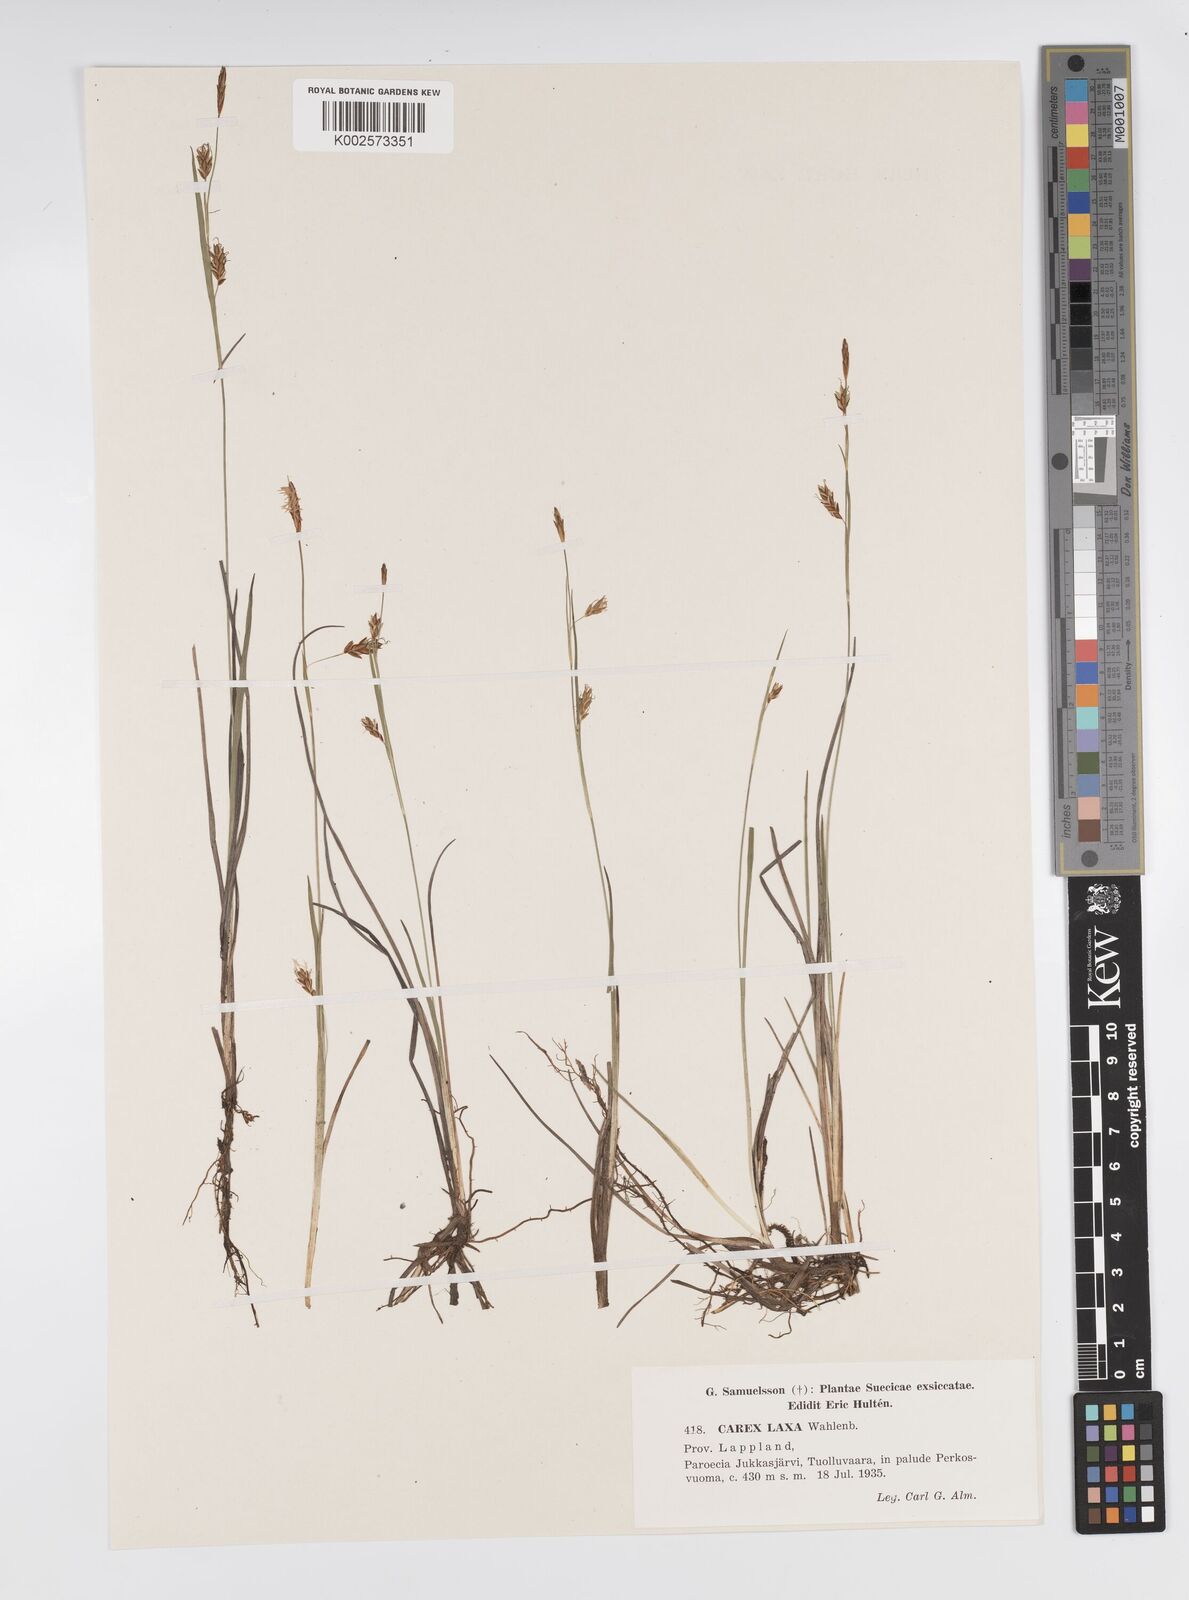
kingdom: Plantae
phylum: Tracheophyta
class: Liliopsida
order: Poales
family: Cyperaceae
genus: Carex
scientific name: Carex laxa
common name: Weak sedge
